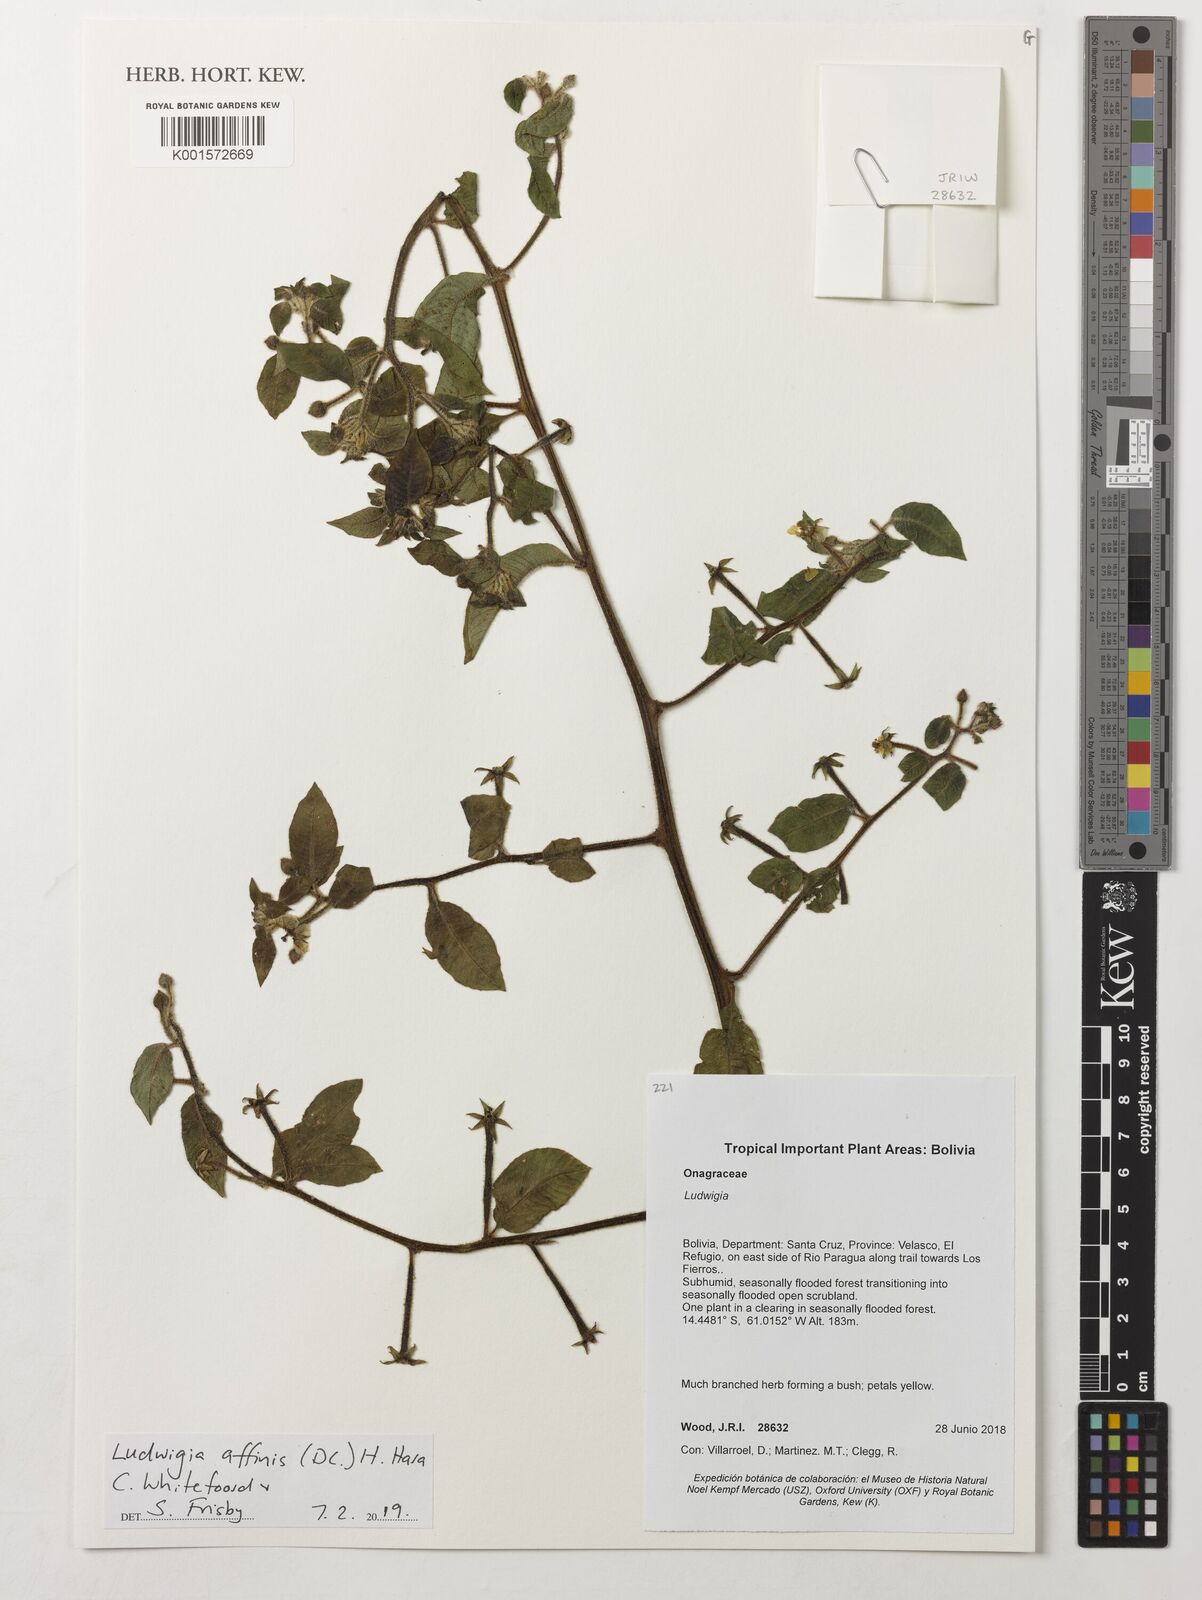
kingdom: Plantae
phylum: Tracheophyta
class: Magnoliopsida
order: Myrtales
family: Onagraceae
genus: Ludwigia
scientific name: Ludwigia affinis
